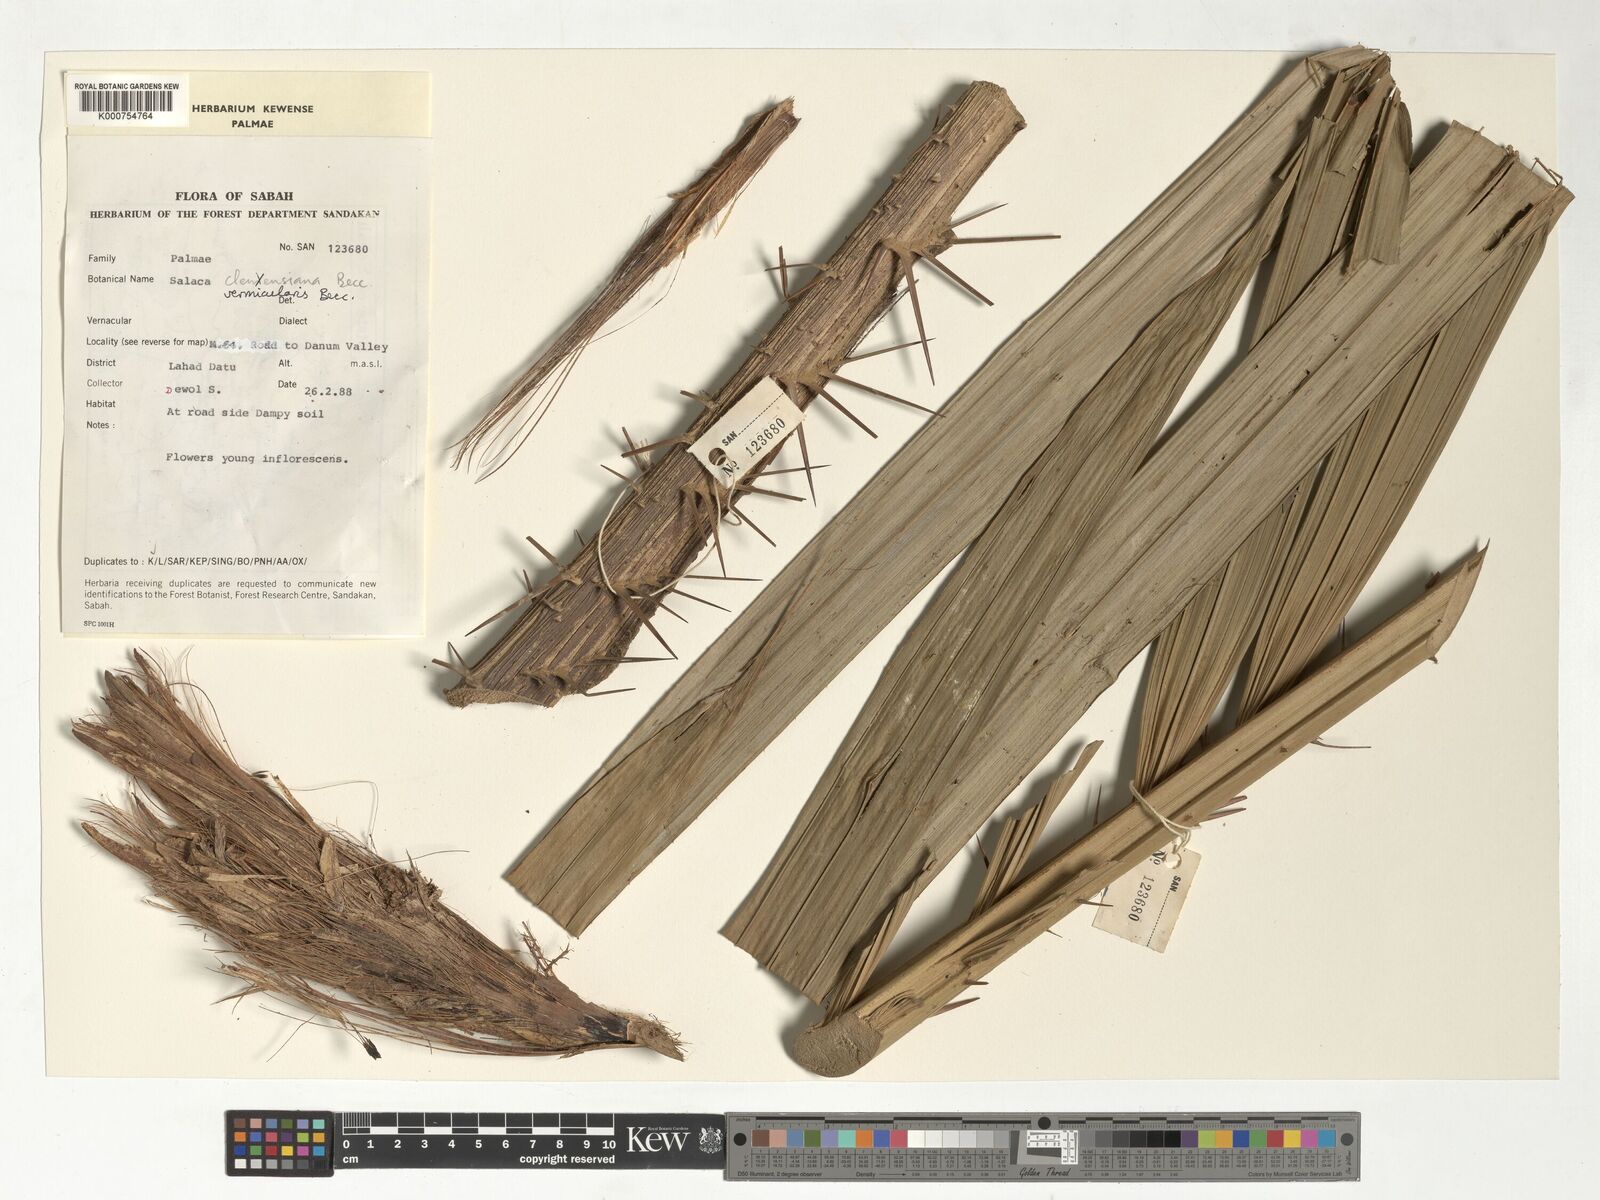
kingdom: Plantae
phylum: Tracheophyta
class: Liliopsida
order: Arecales
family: Arecaceae
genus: Salacca
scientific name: Salacca vermicularis
